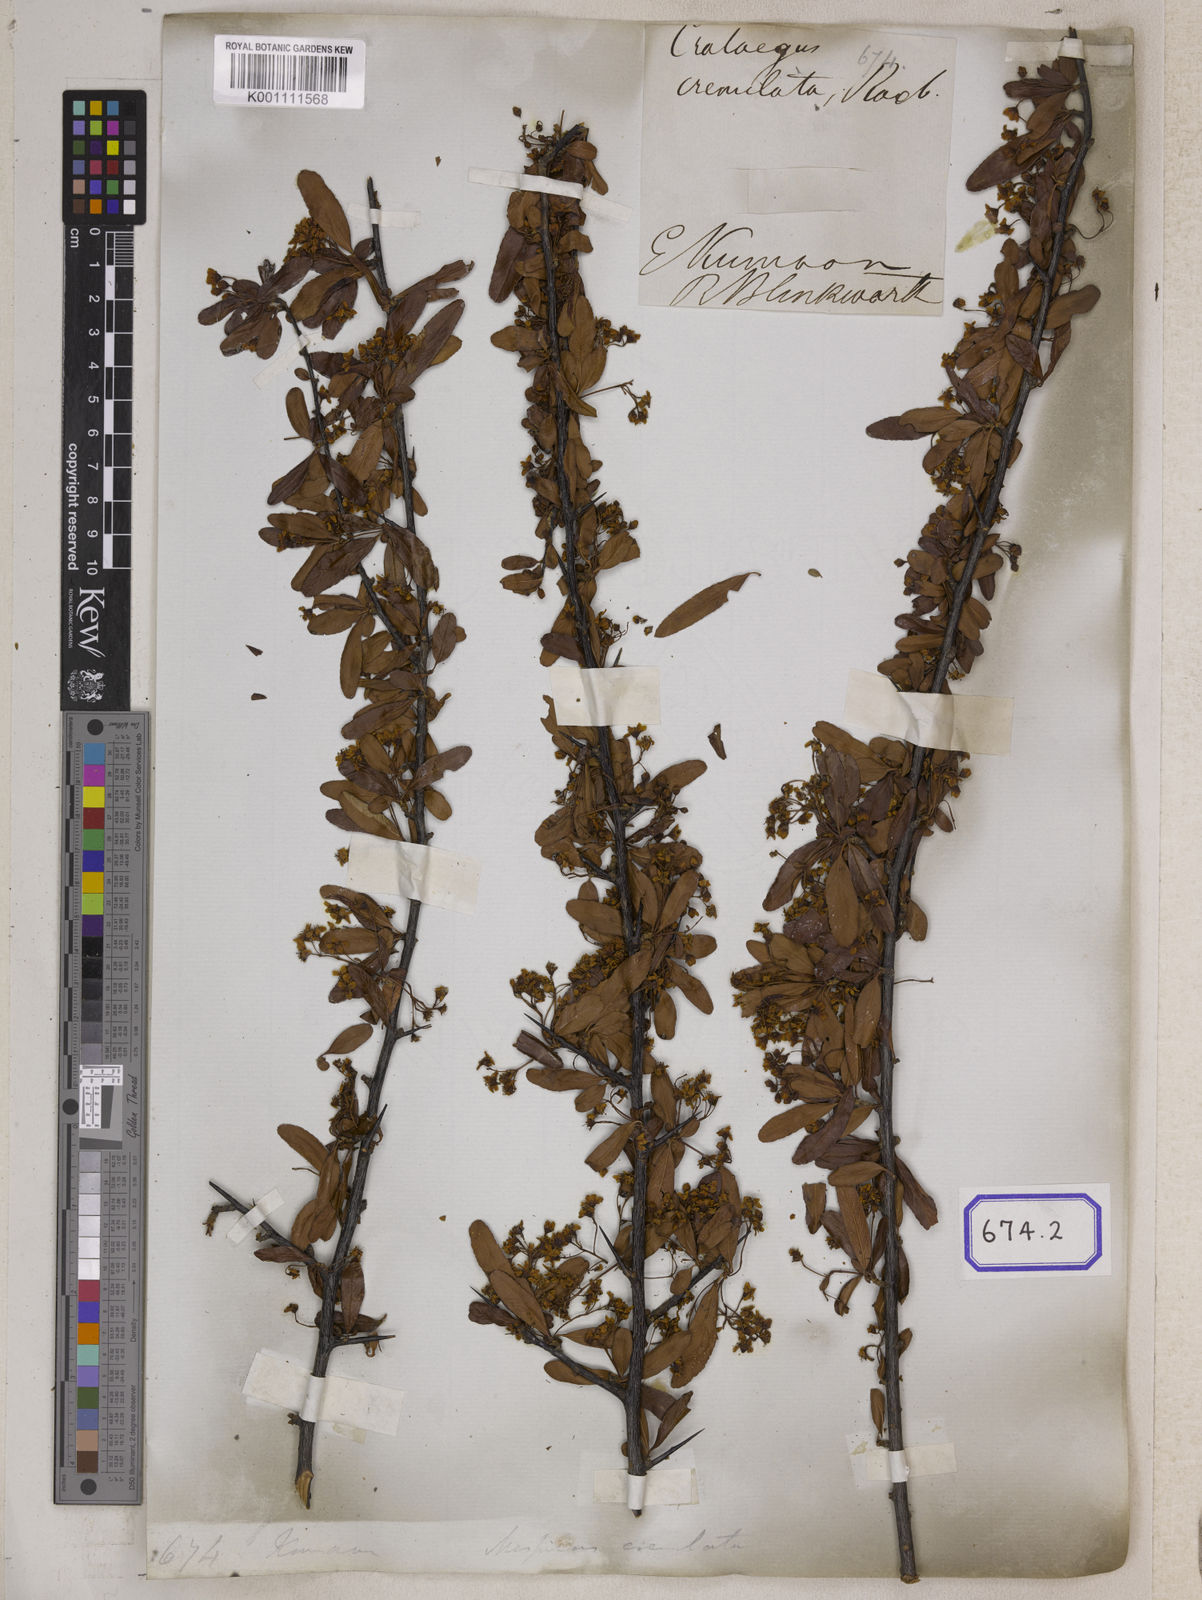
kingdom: Plantae
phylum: Tracheophyta
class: Magnoliopsida
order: Rosales
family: Rosaceae
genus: Pyracantha
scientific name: Pyracantha crenulata
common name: Nepalese firethorn
